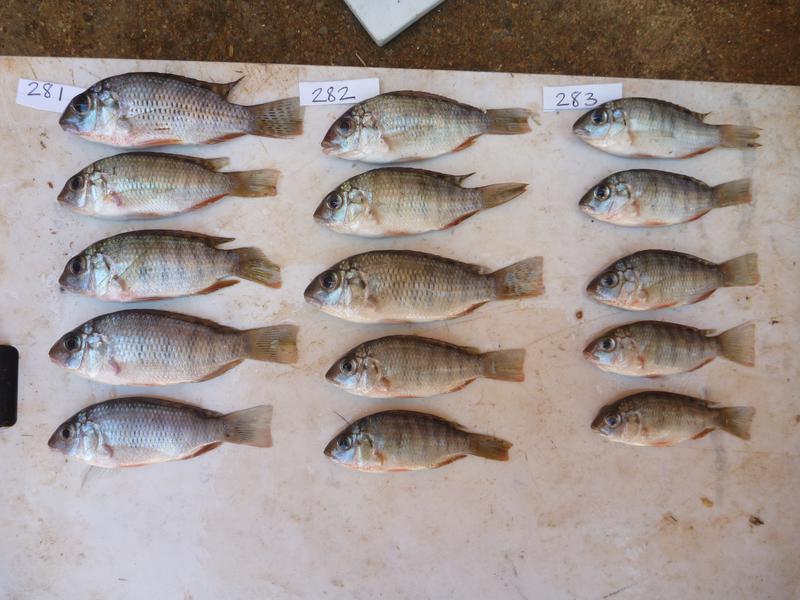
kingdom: Animalia
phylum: Chordata
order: Perciformes
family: Cichlidae
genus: Coptodon
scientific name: Coptodon rendalli
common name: Redbreast tilapia
